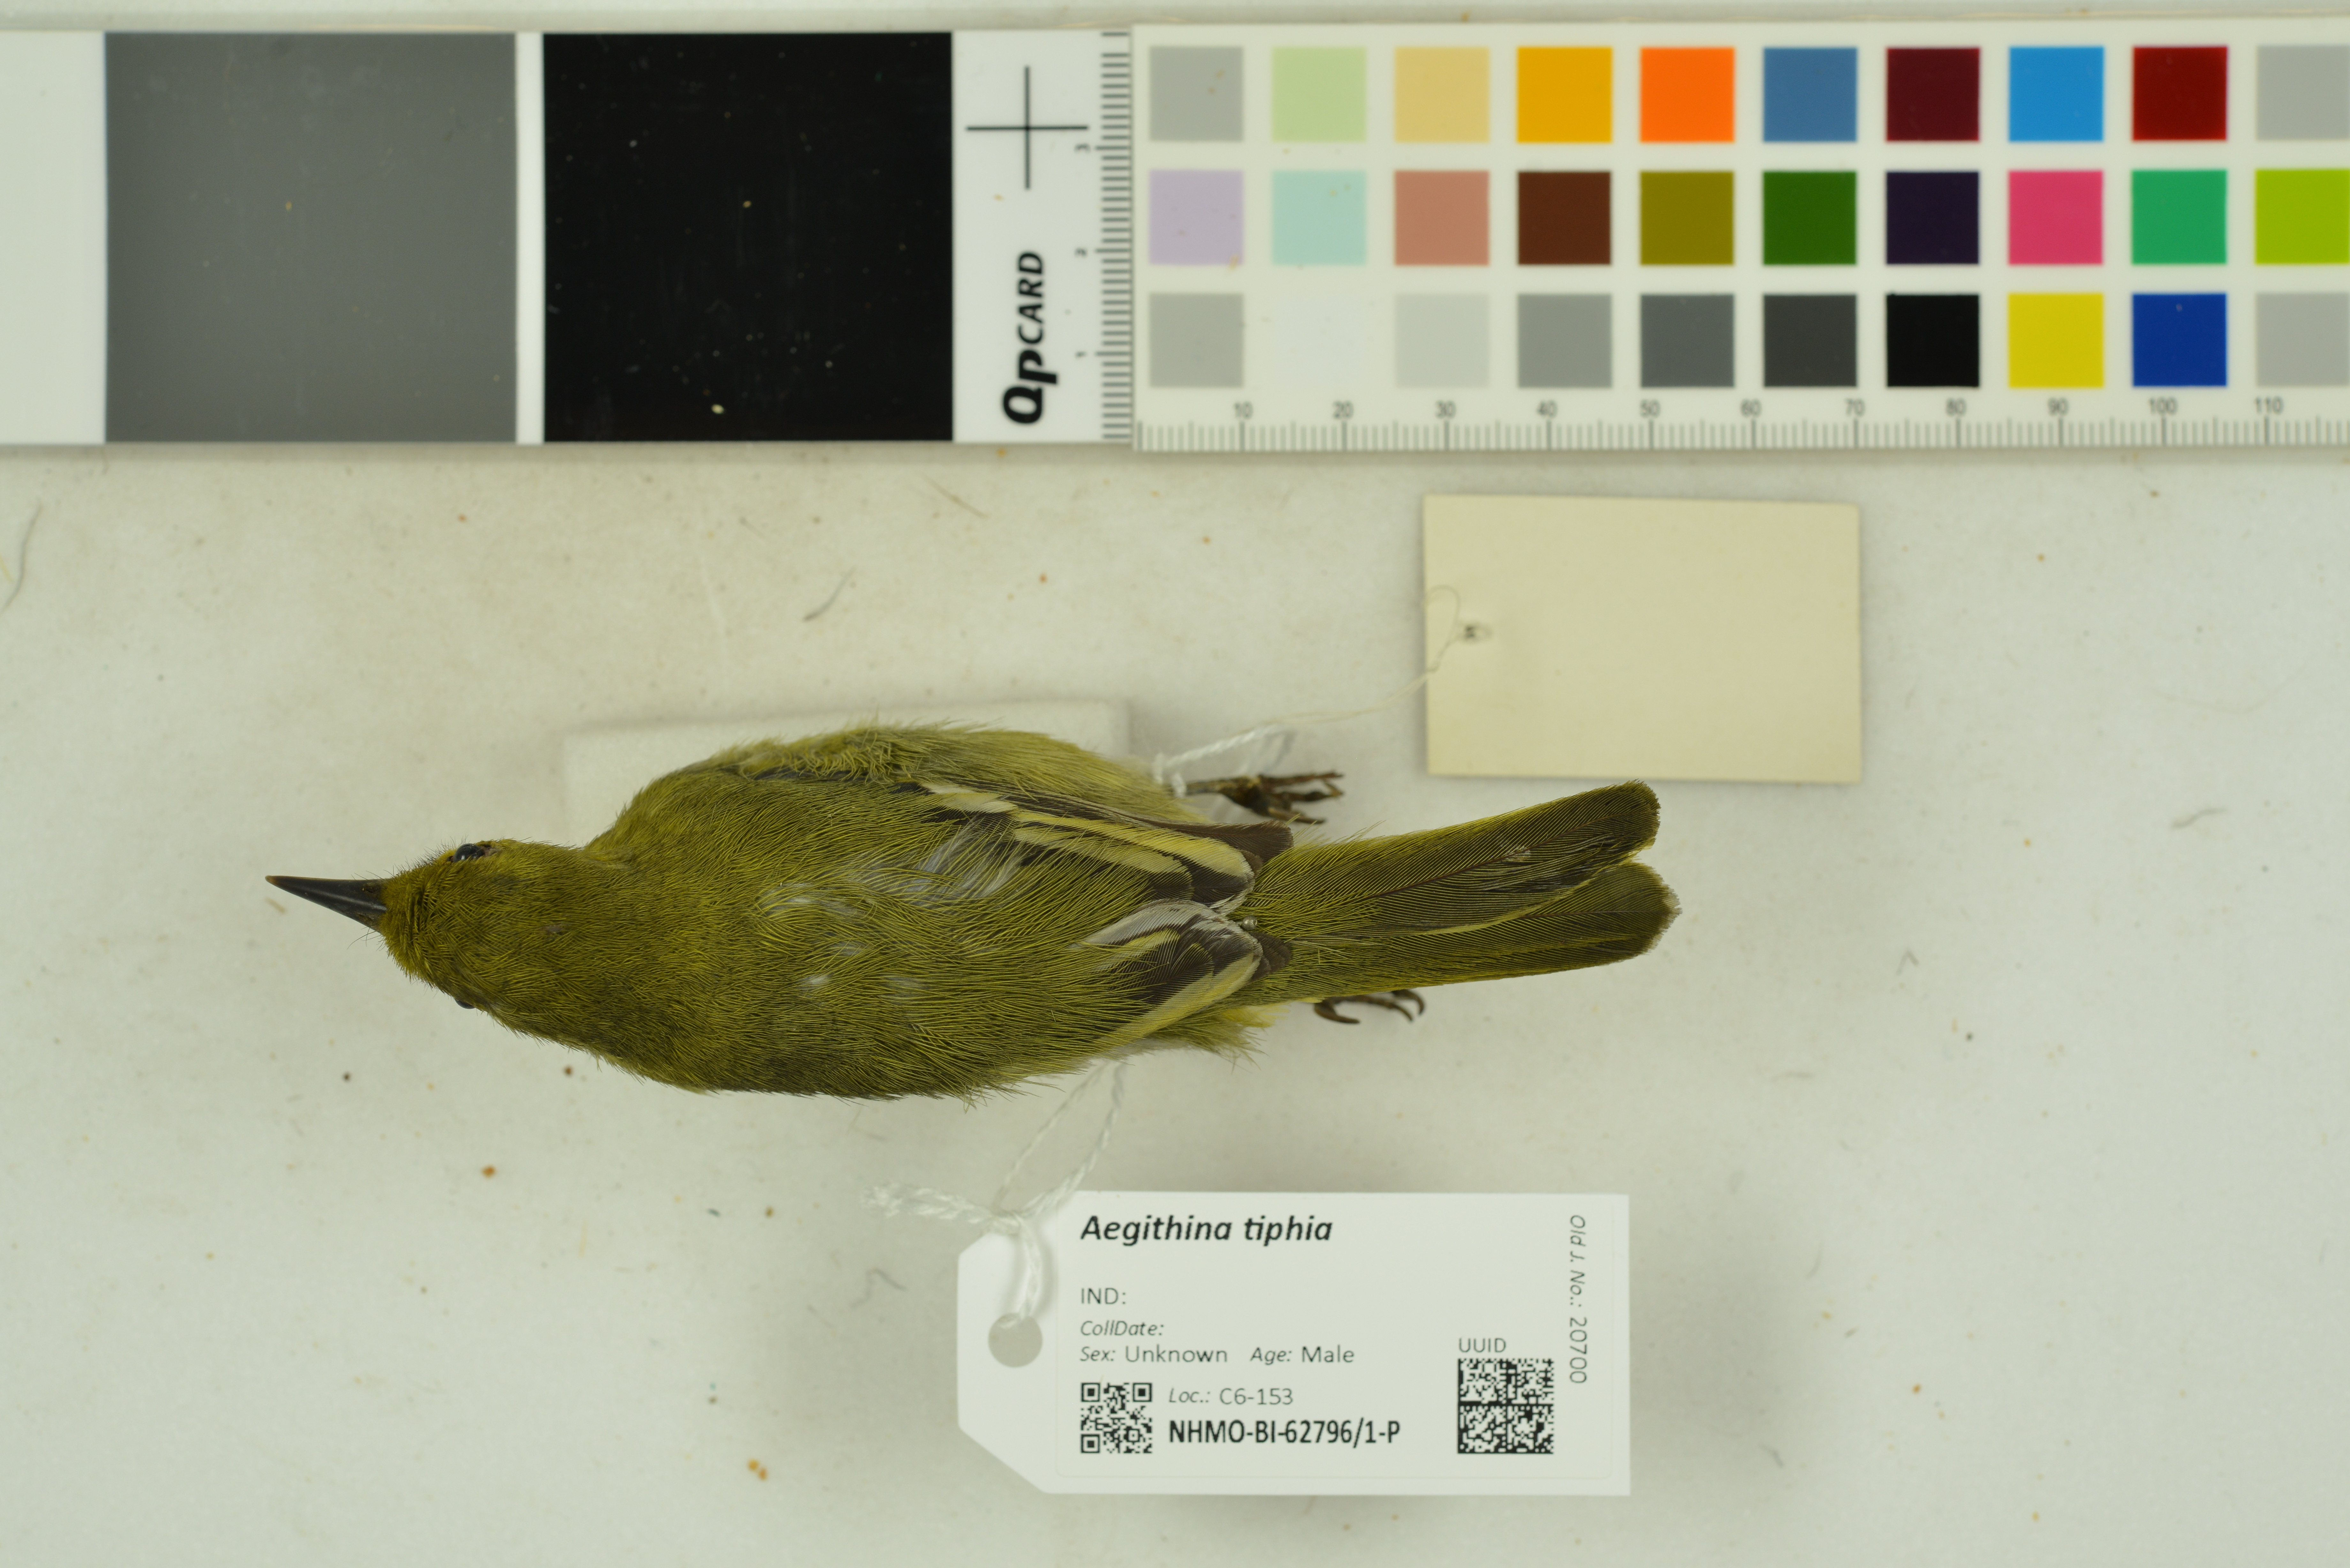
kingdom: Animalia
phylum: Chordata
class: Aves
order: Passeriformes
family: Aegithinidae
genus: Aegithina
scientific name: Aegithina tiphia
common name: Common iora
